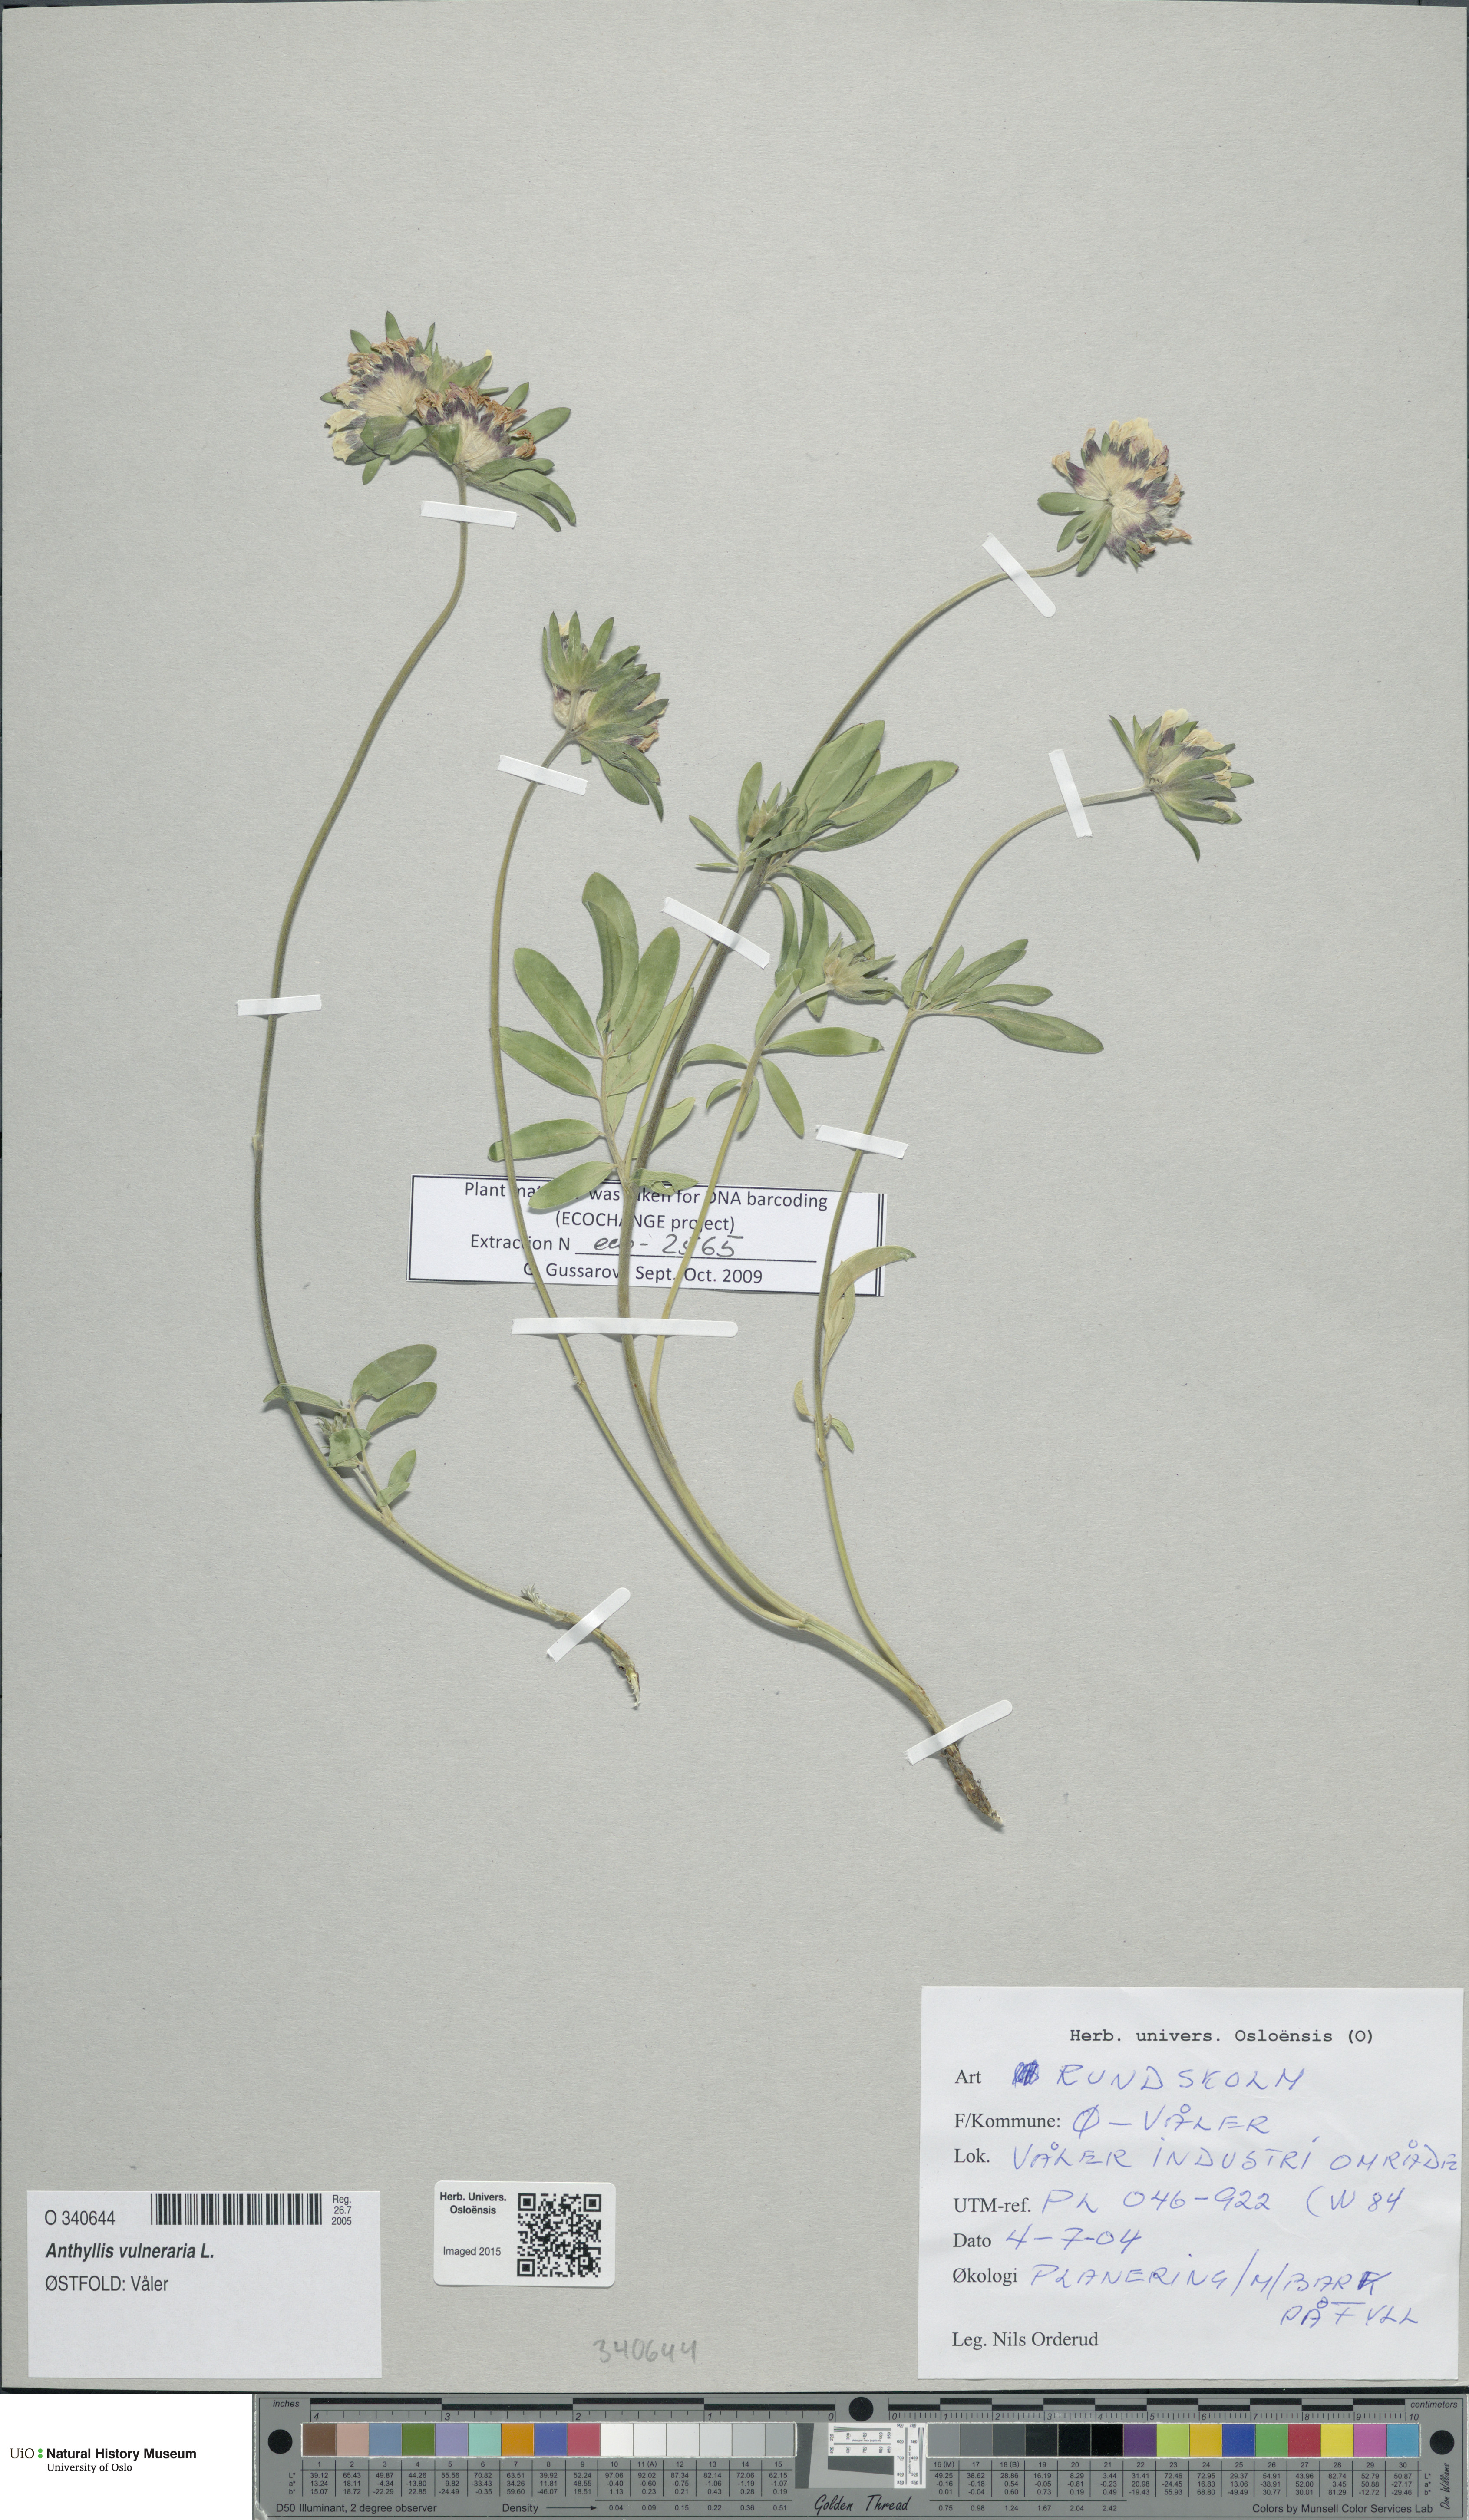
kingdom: Plantae
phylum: Tracheophyta
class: Magnoliopsida
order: Fabales
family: Fabaceae
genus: Anthyllis
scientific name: Anthyllis vulneraria
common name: Kidney vetch
